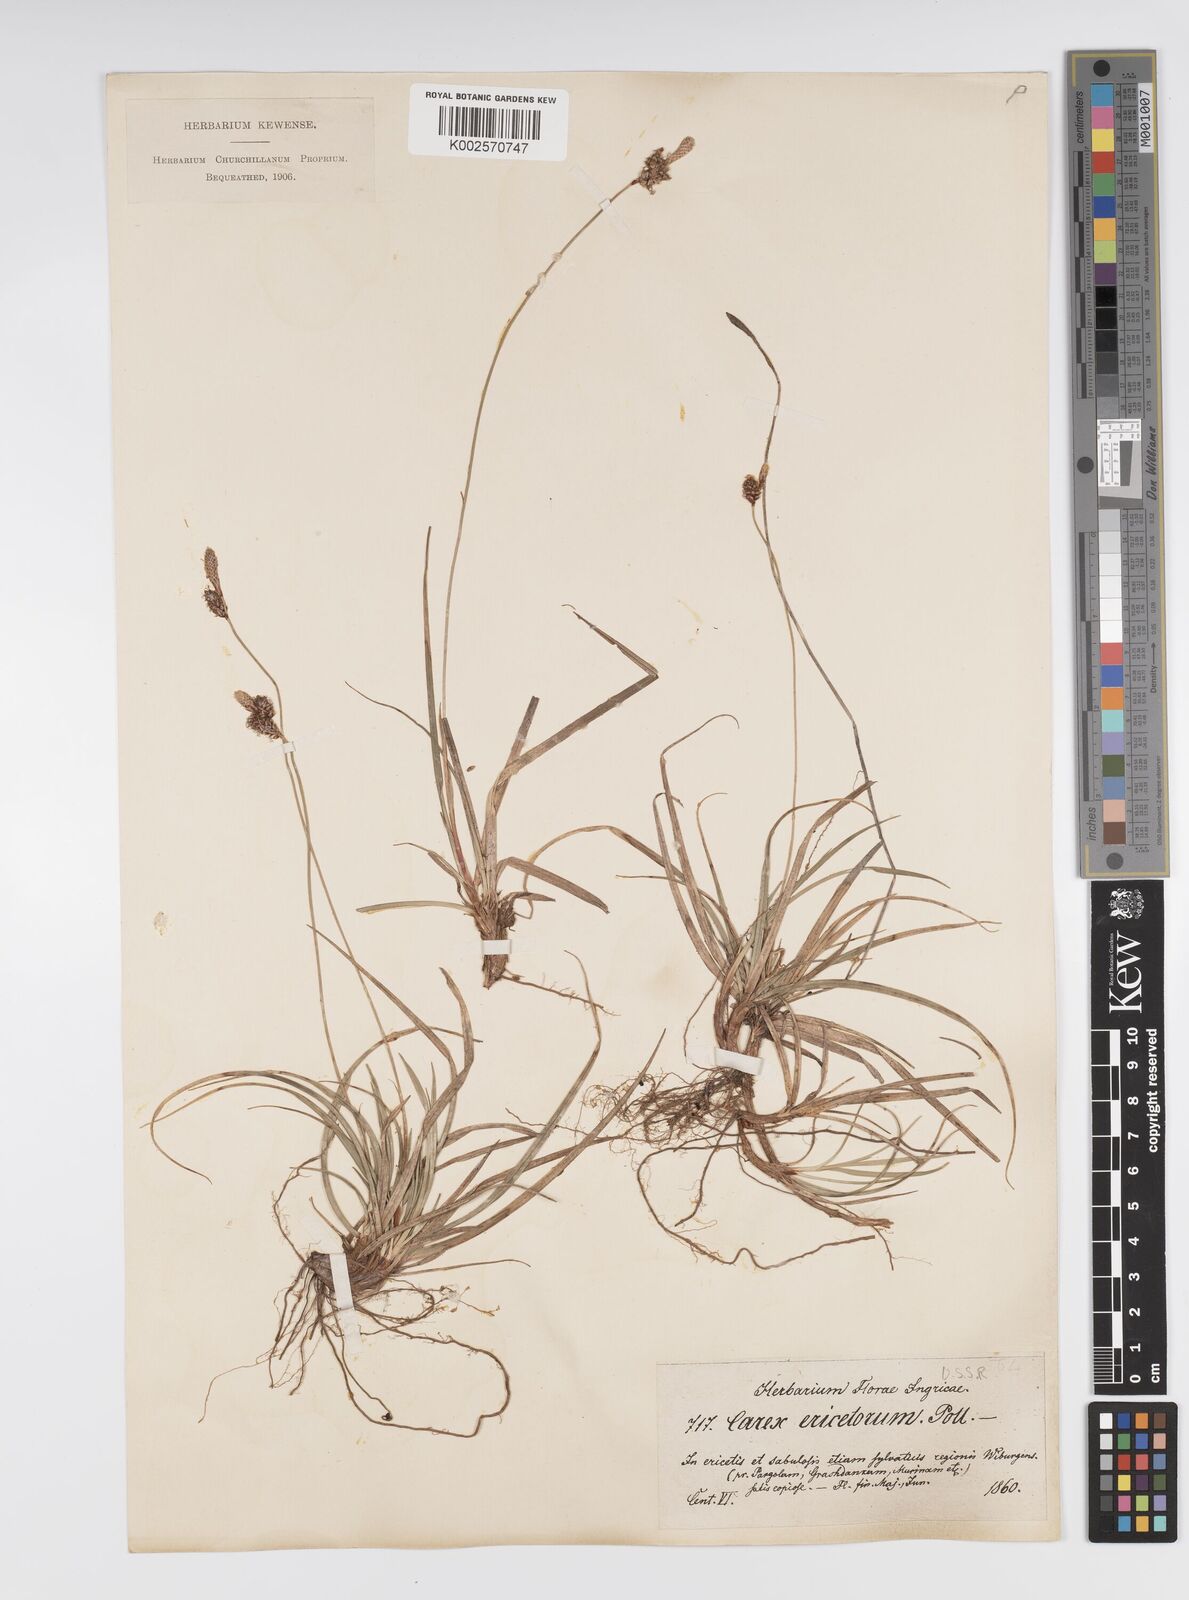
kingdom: Plantae
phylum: Tracheophyta
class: Liliopsida
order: Poales
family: Cyperaceae
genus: Carex
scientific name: Carex ericetorum
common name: Rare spring-sedge
